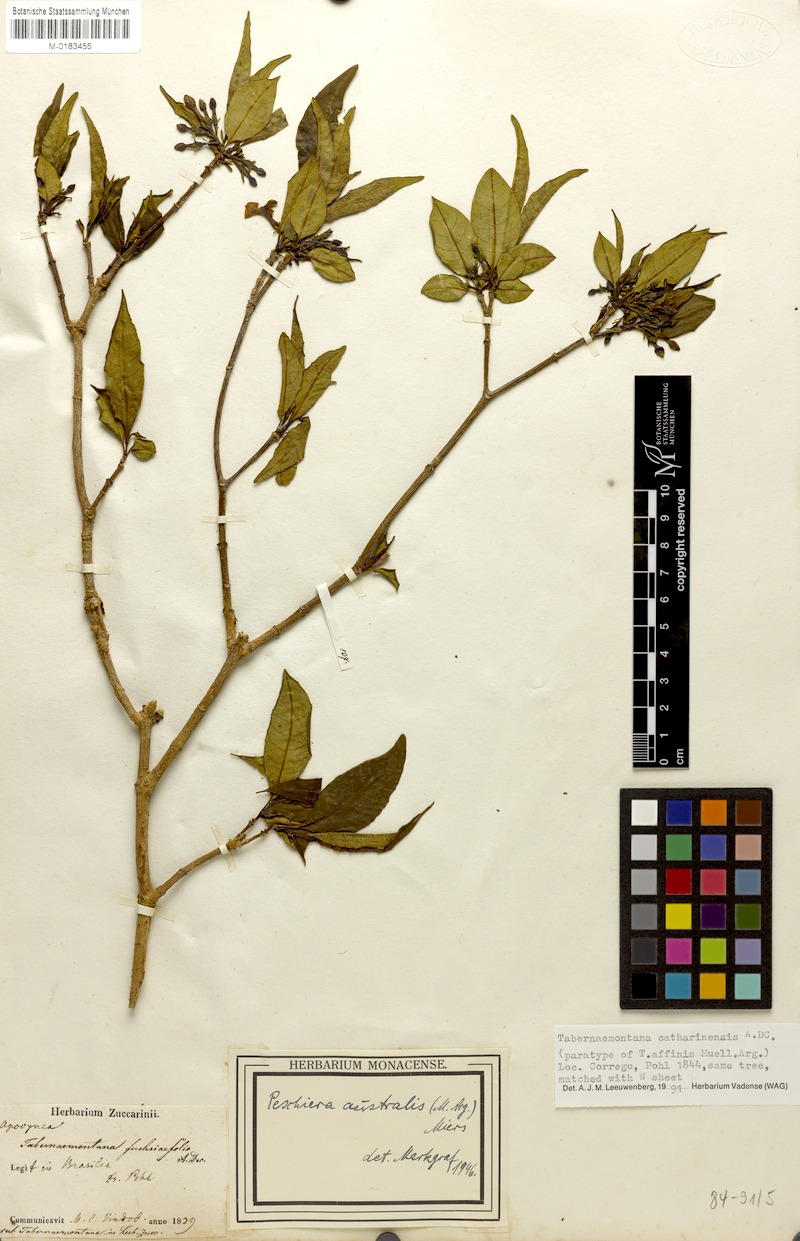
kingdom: Plantae
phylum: Tracheophyta
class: Magnoliopsida
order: Gentianales
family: Apocynaceae
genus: Tabernaemontana
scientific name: Tabernaemontana catharinensis
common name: Pinwheel-flower
